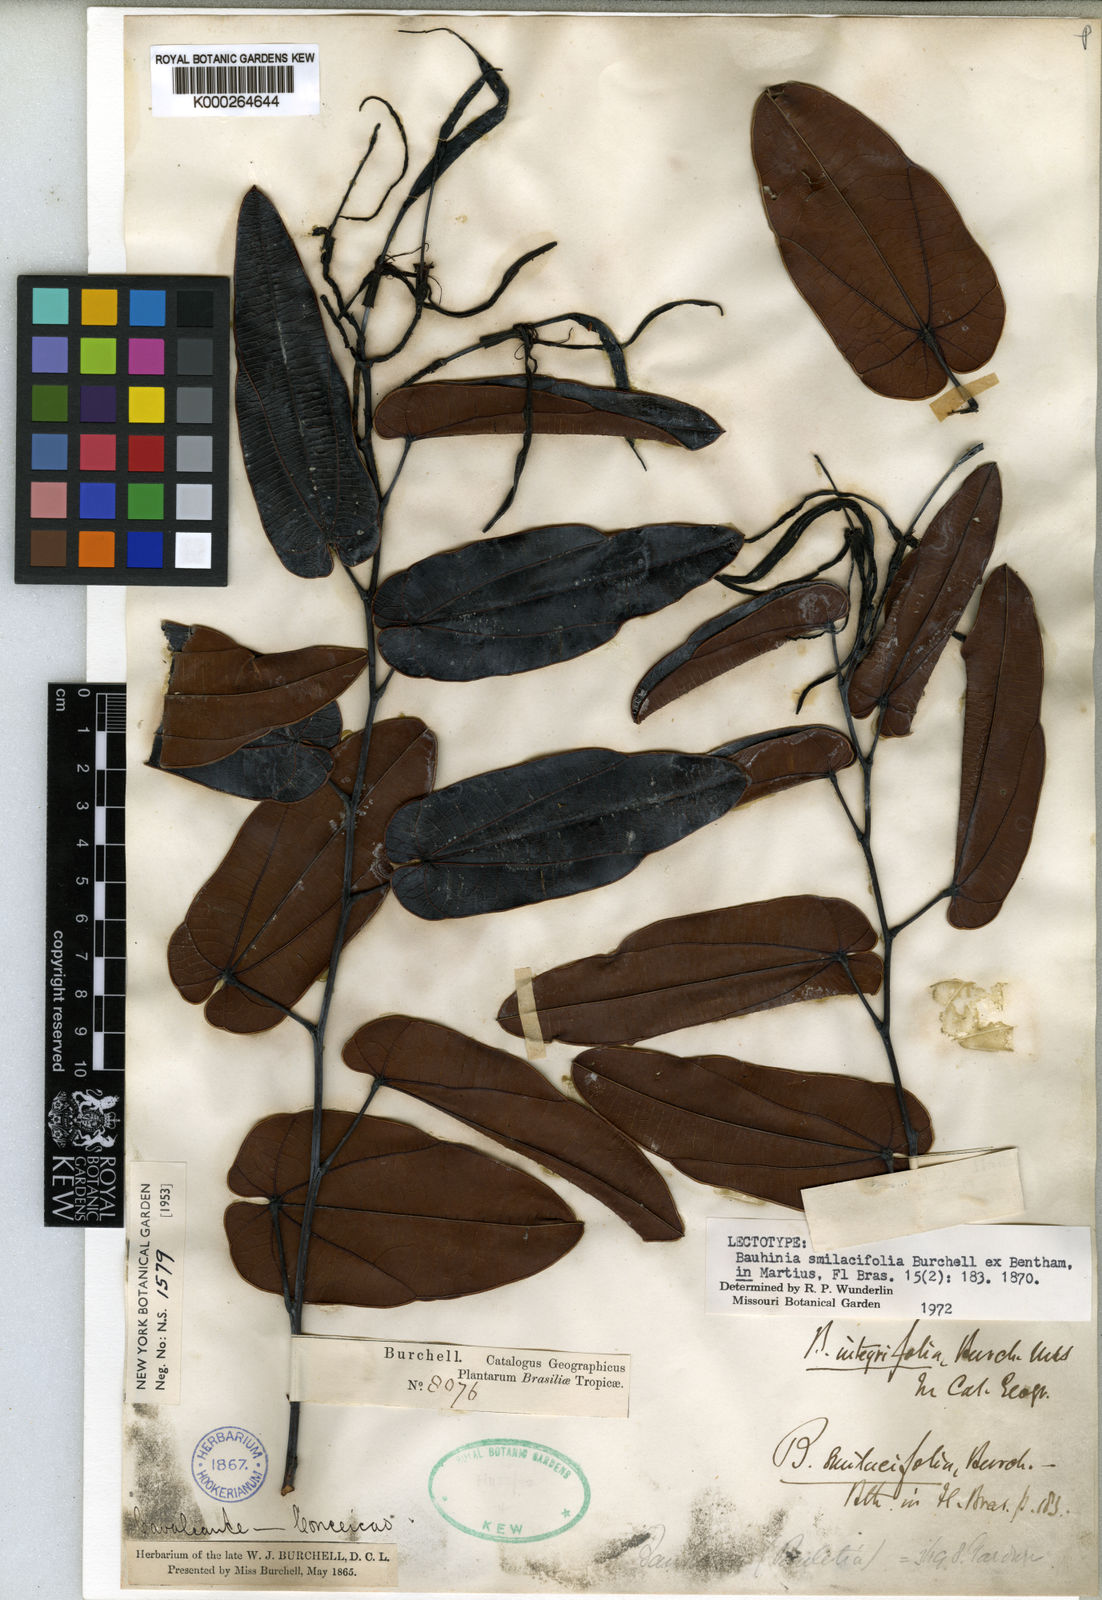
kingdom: Plantae
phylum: Tracheophyta
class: Magnoliopsida
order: Fabales
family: Fabaceae
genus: Bauhinia
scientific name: Bauhinia smilacifolia
